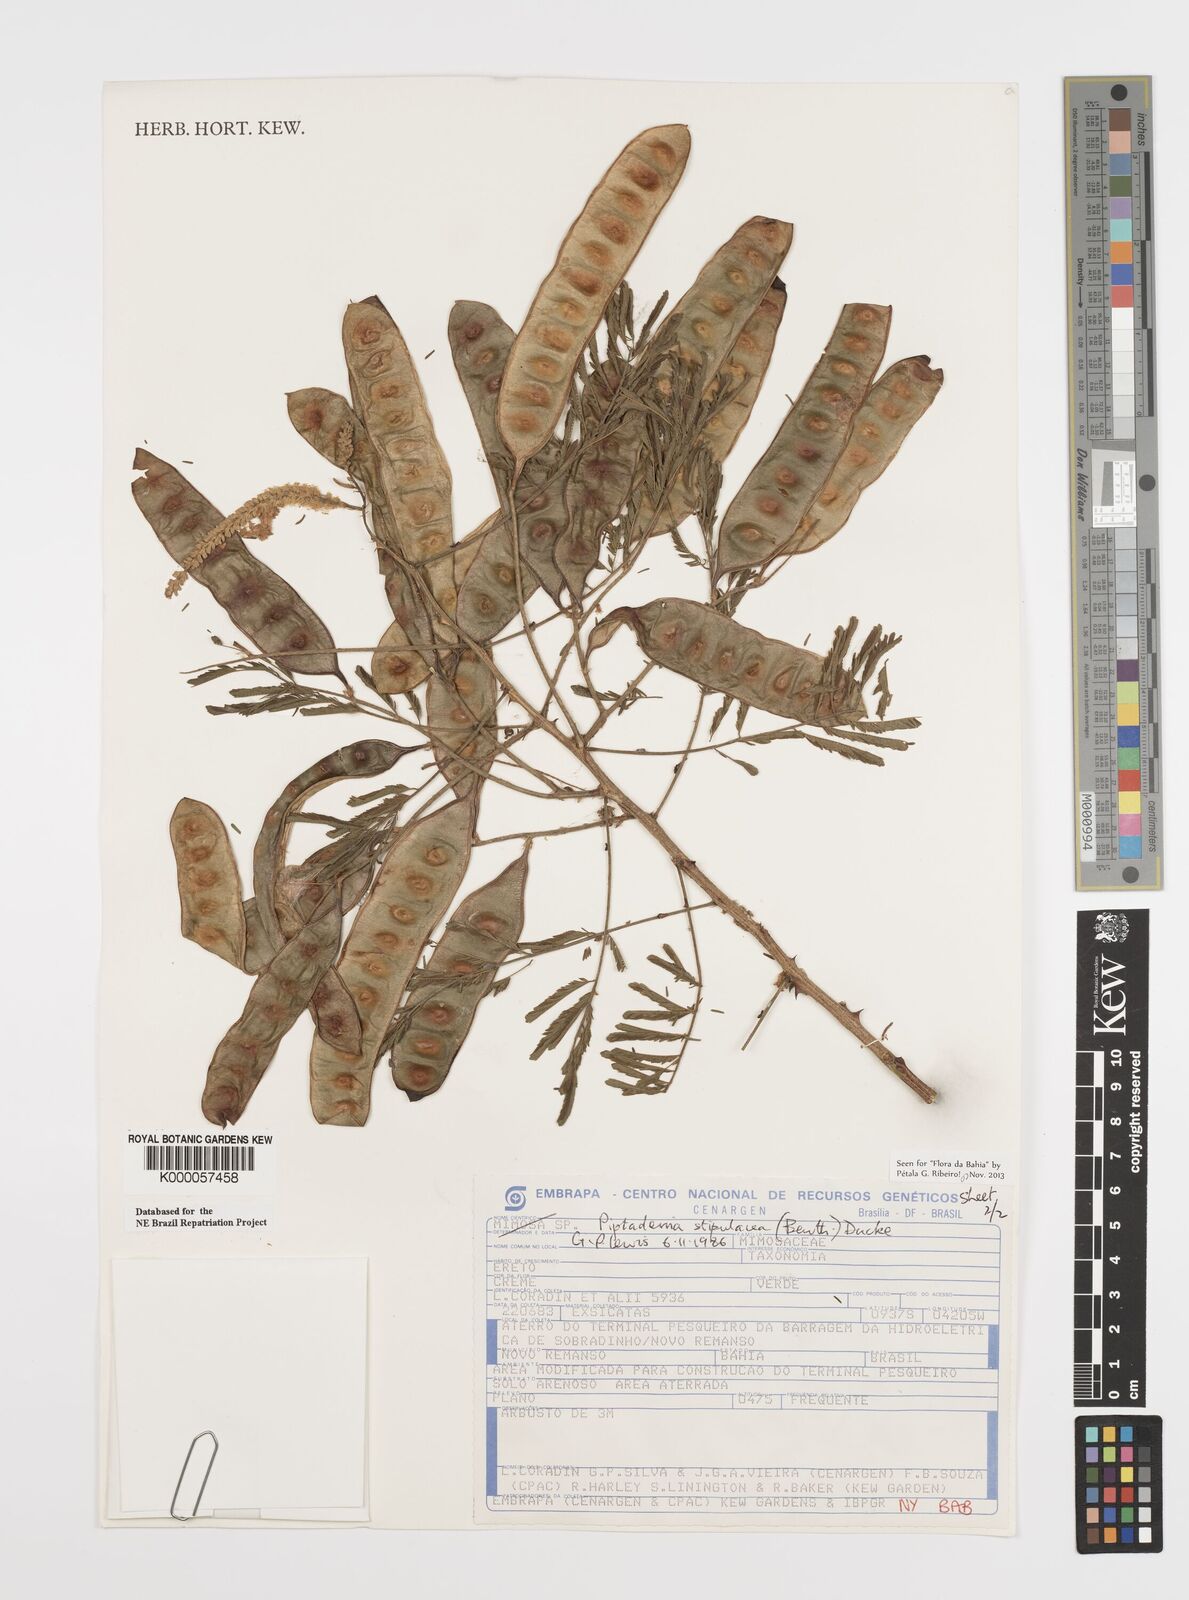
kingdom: Plantae
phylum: Tracheophyta
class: Magnoliopsida
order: Fabales
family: Fabaceae
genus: Piptadenia
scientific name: Piptadenia retusa
